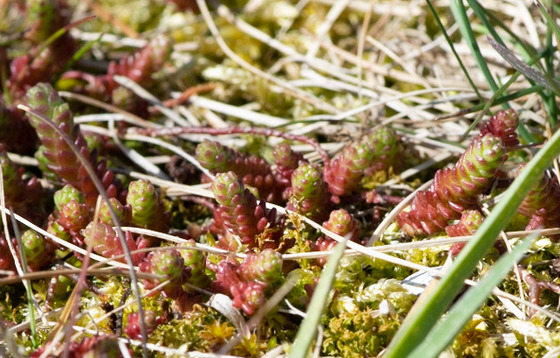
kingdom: Plantae
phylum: Tracheophyta
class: Magnoliopsida
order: Saxifragales
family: Crassulaceae
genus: Sedum
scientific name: Sedum acre
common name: Bidende stenurt
